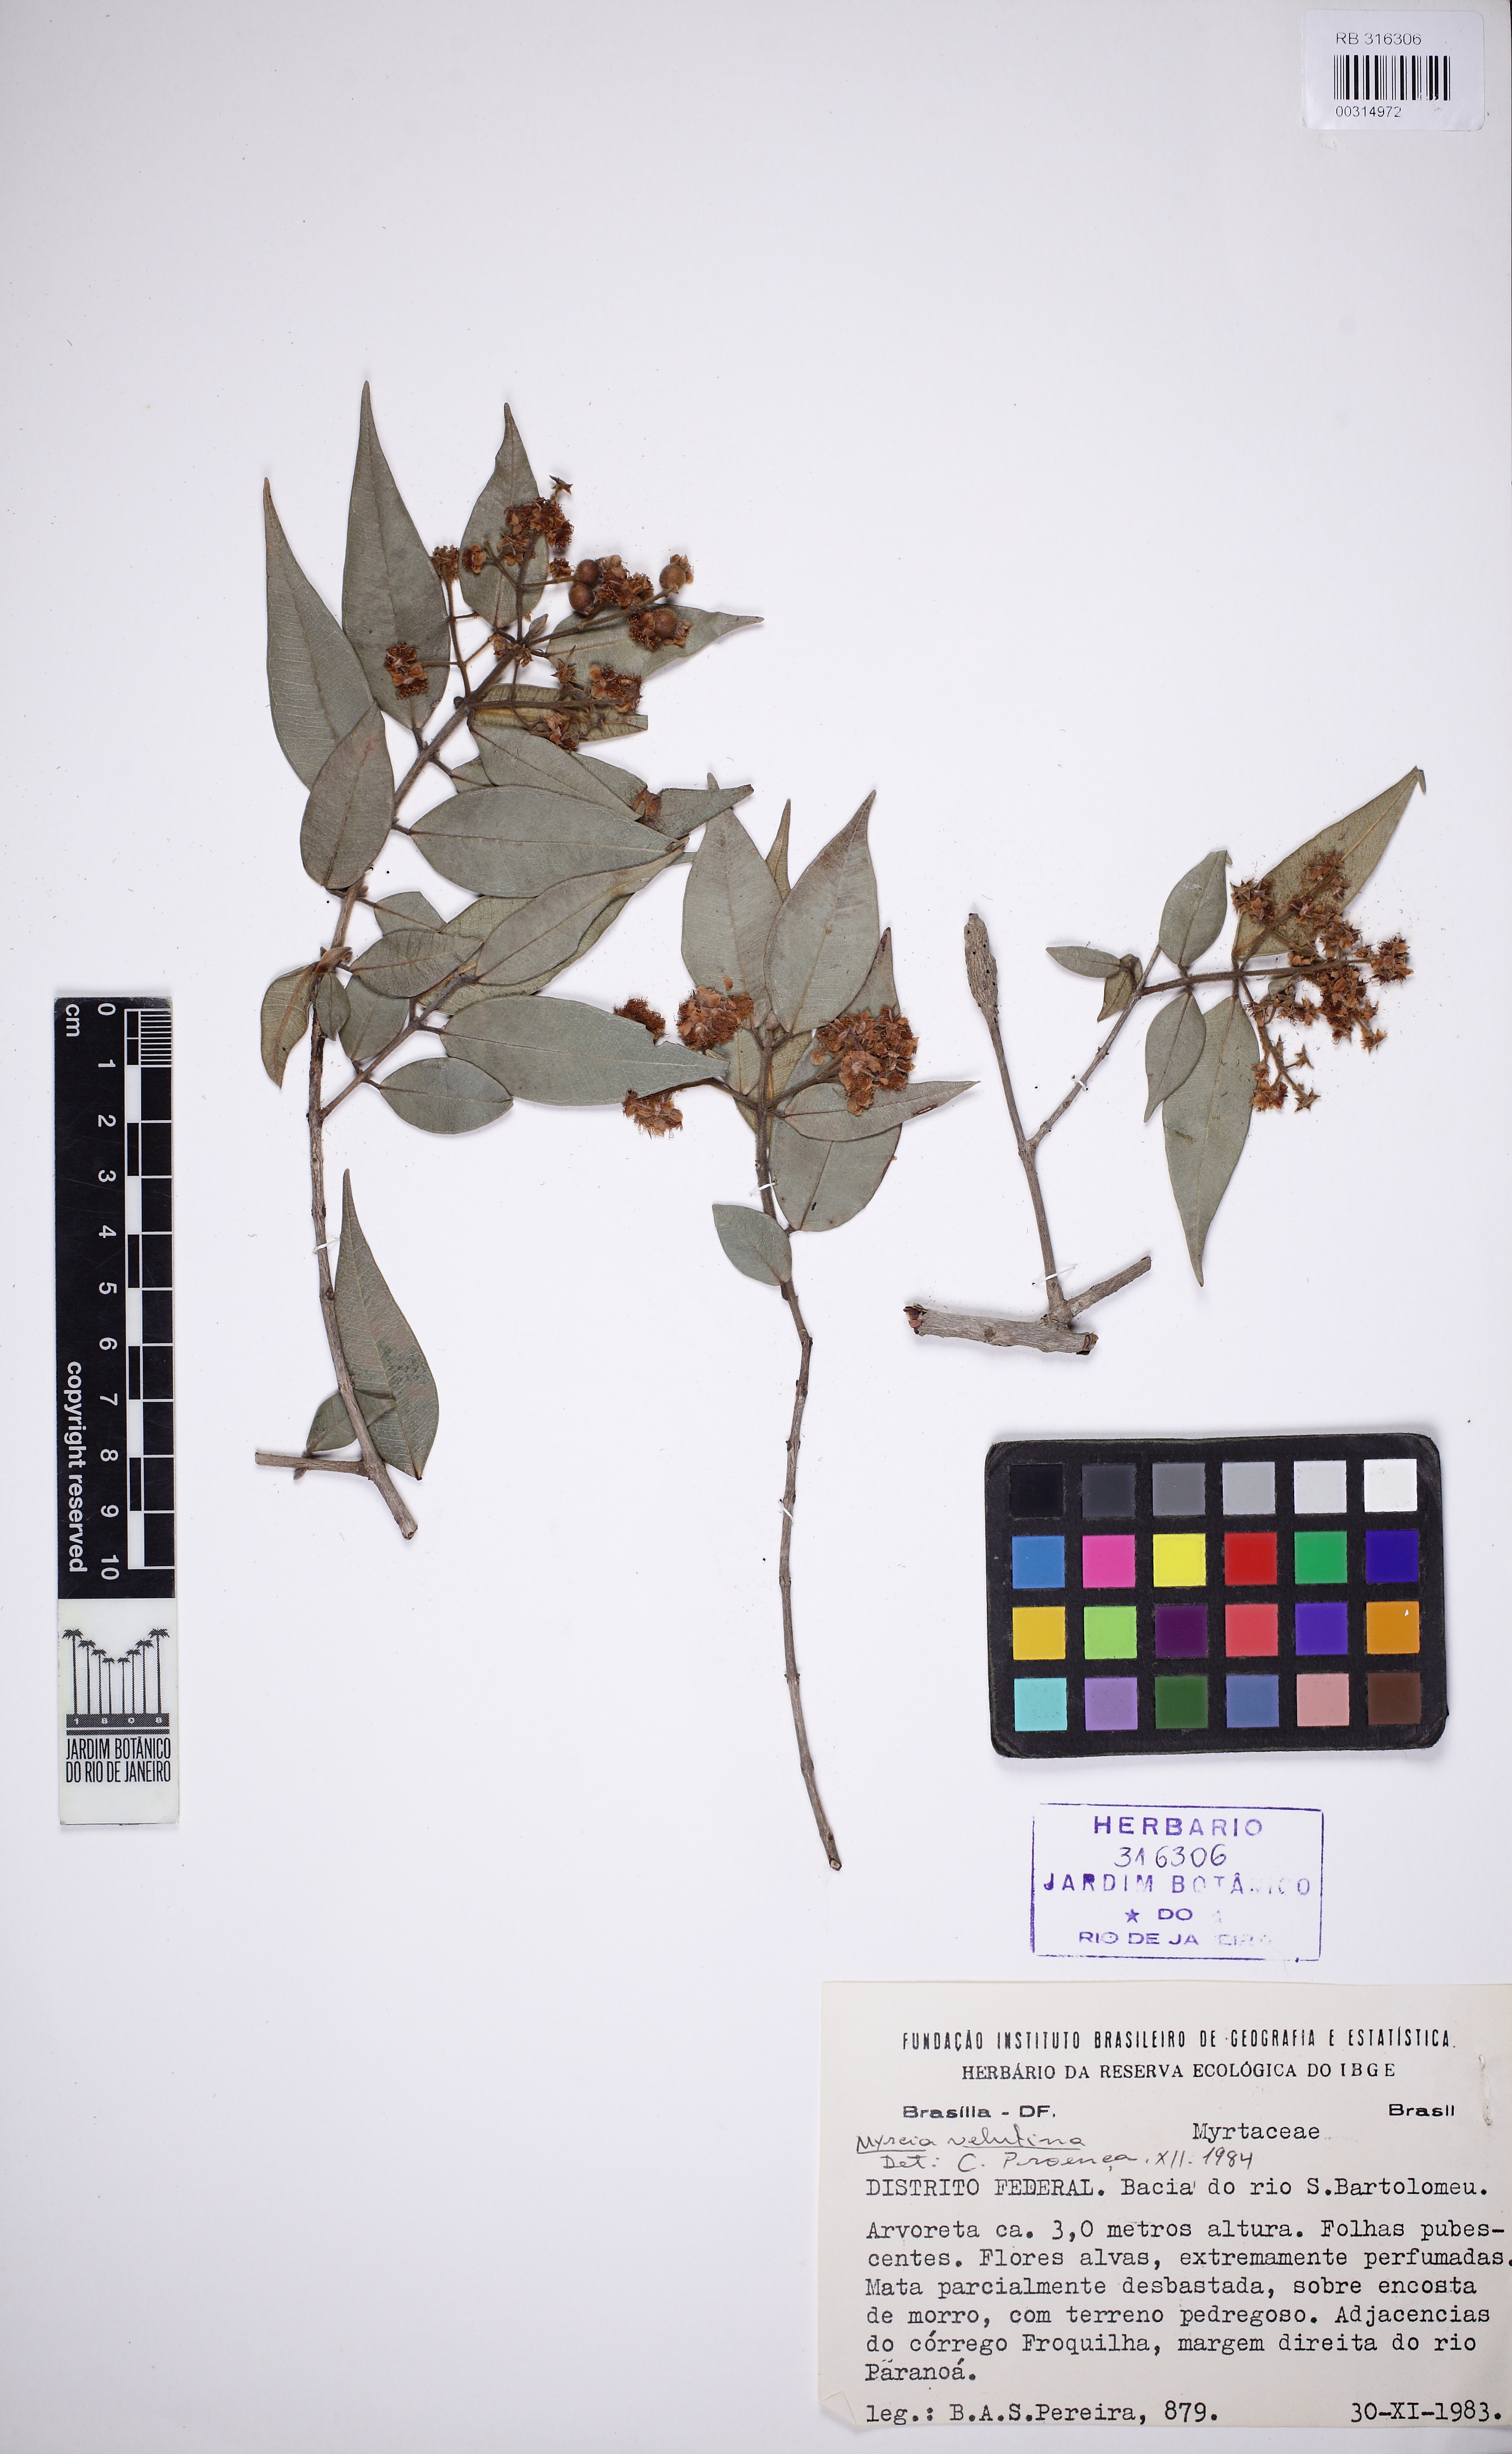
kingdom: Plantae
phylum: Tracheophyta
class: Magnoliopsida
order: Myrtales
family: Myrtaceae
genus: Myrcia
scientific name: Myrcia splendens
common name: Surinam cherry
